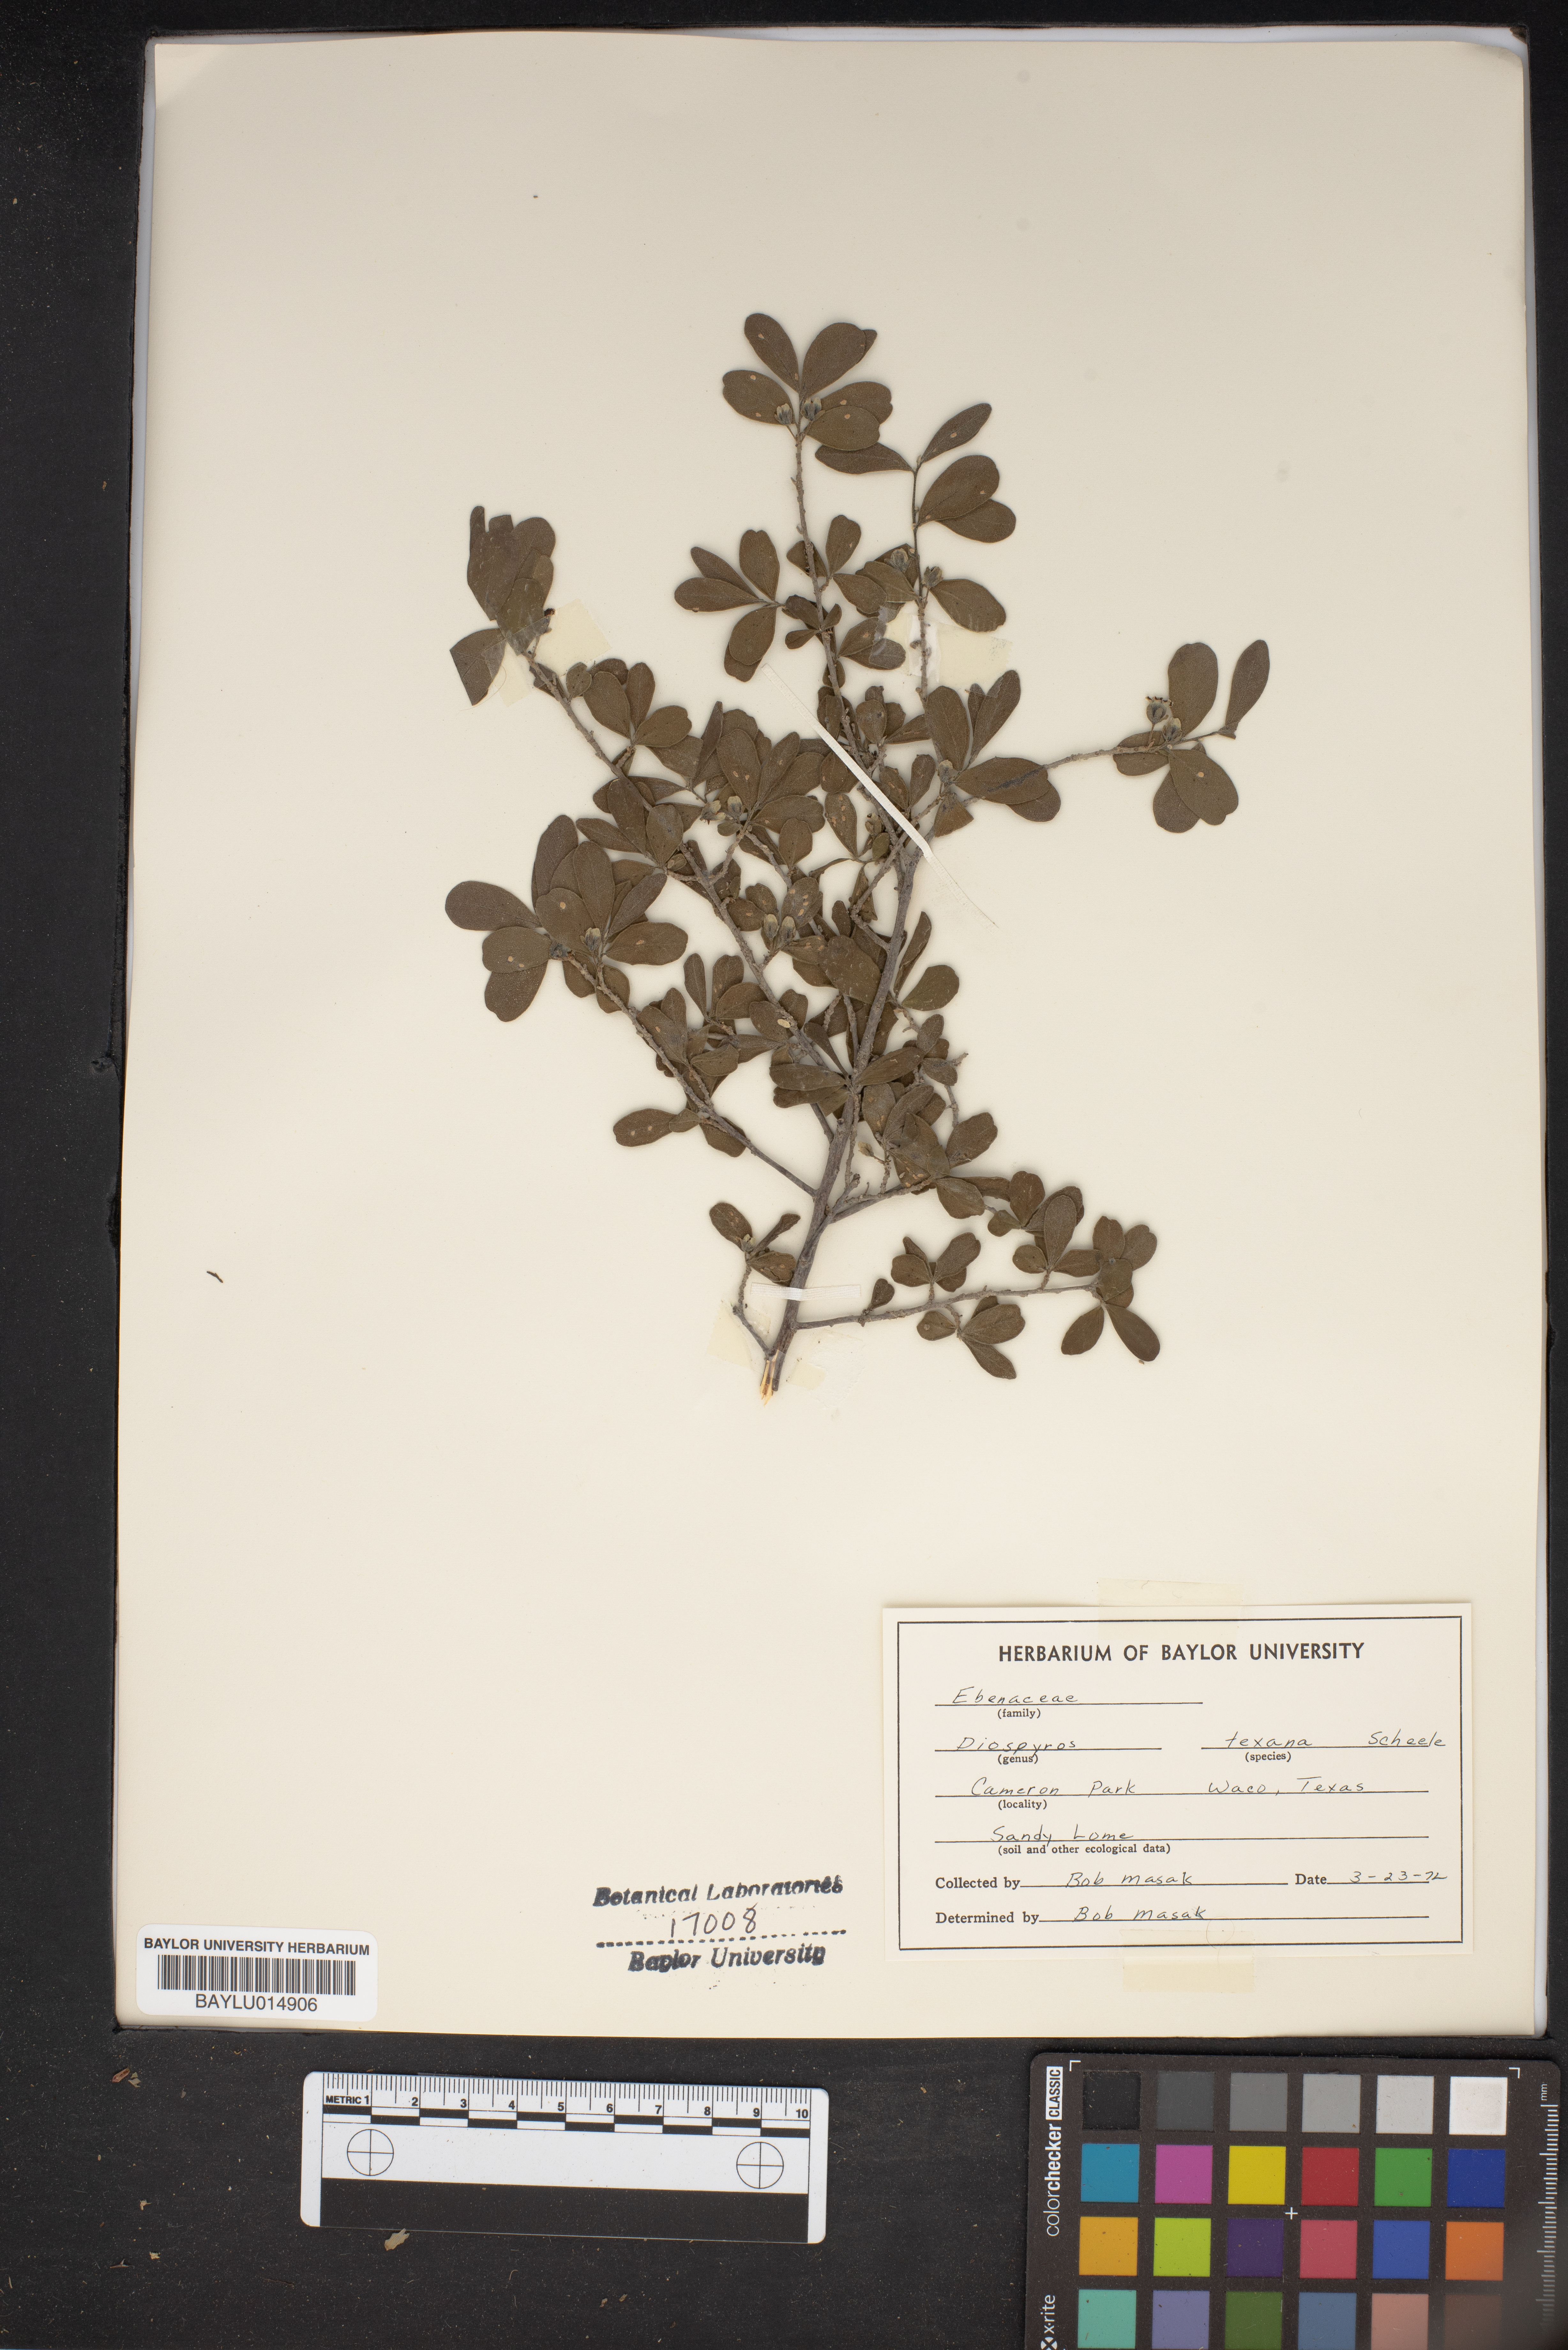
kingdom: Plantae
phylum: Tracheophyta
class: Magnoliopsida
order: Ericales
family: Ebenaceae
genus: Diospyros
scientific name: Diospyros texana
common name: Texas persimmon
